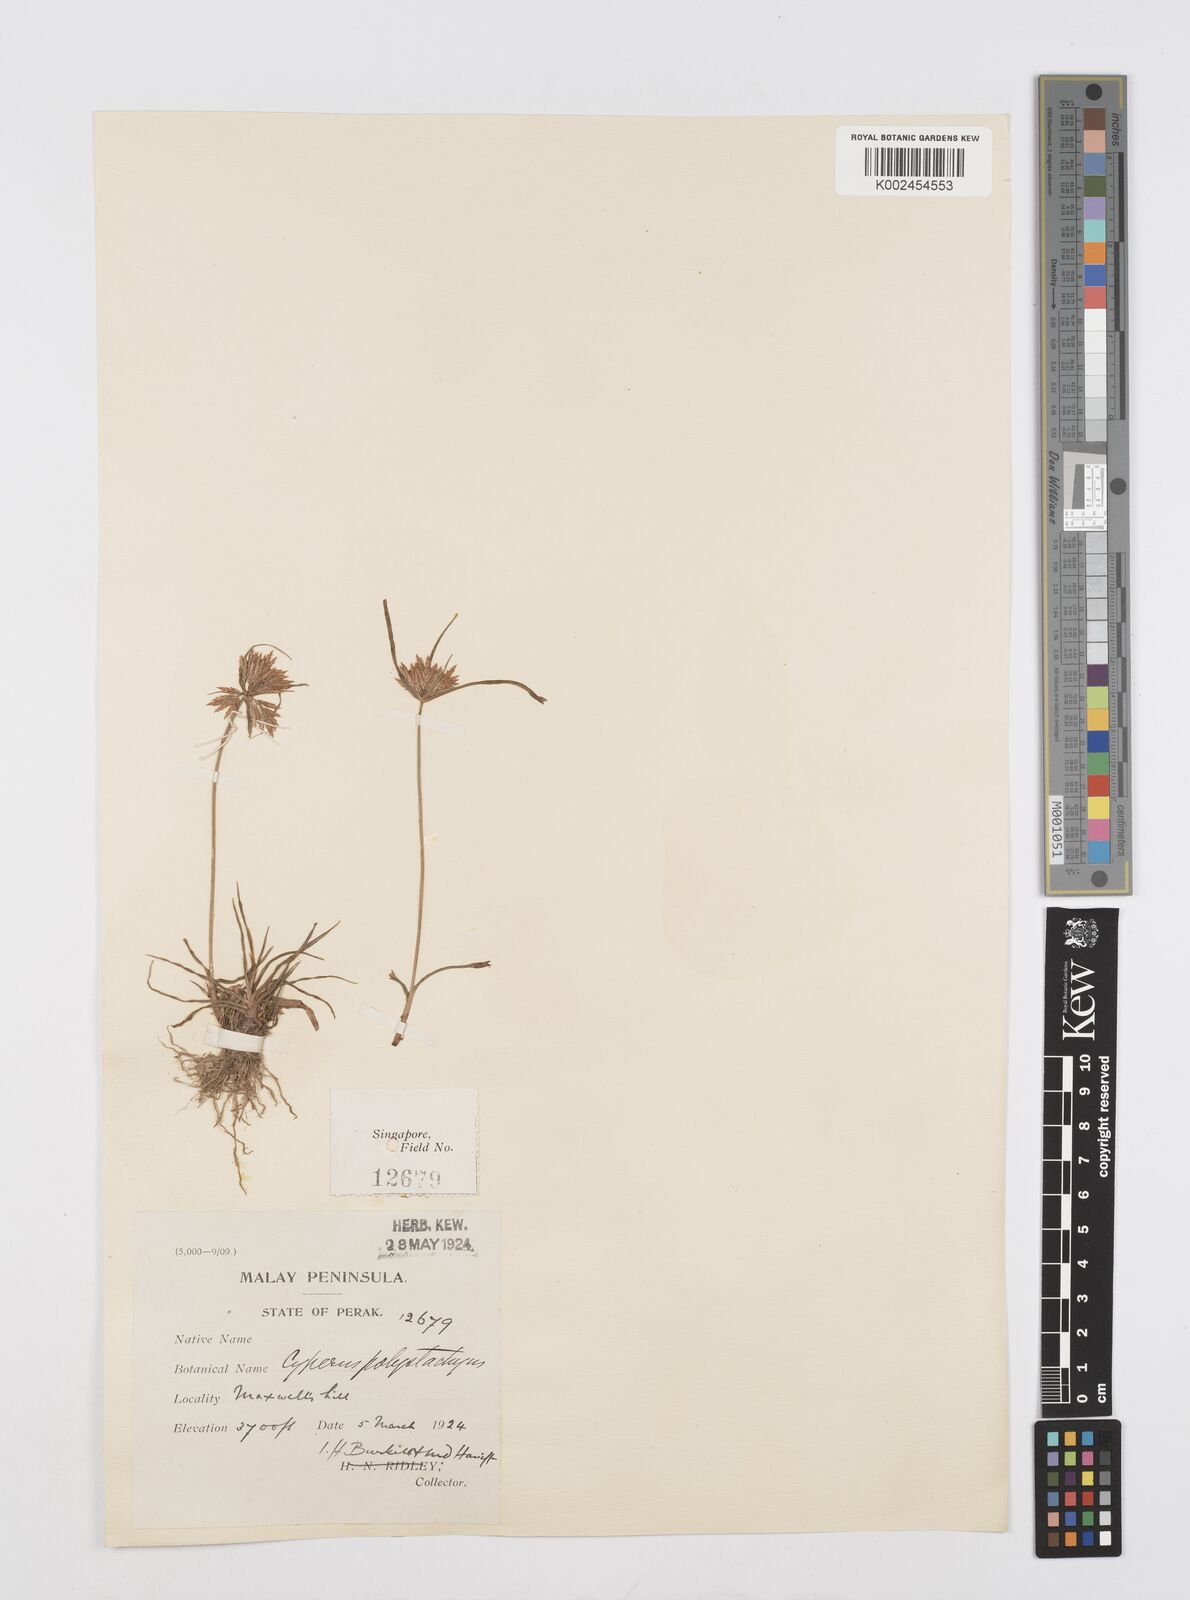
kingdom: Plantae
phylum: Tracheophyta
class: Liliopsida
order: Poales
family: Cyperaceae
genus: Cyperus
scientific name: Cyperus polystachyos
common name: Bunchy flat sedge
